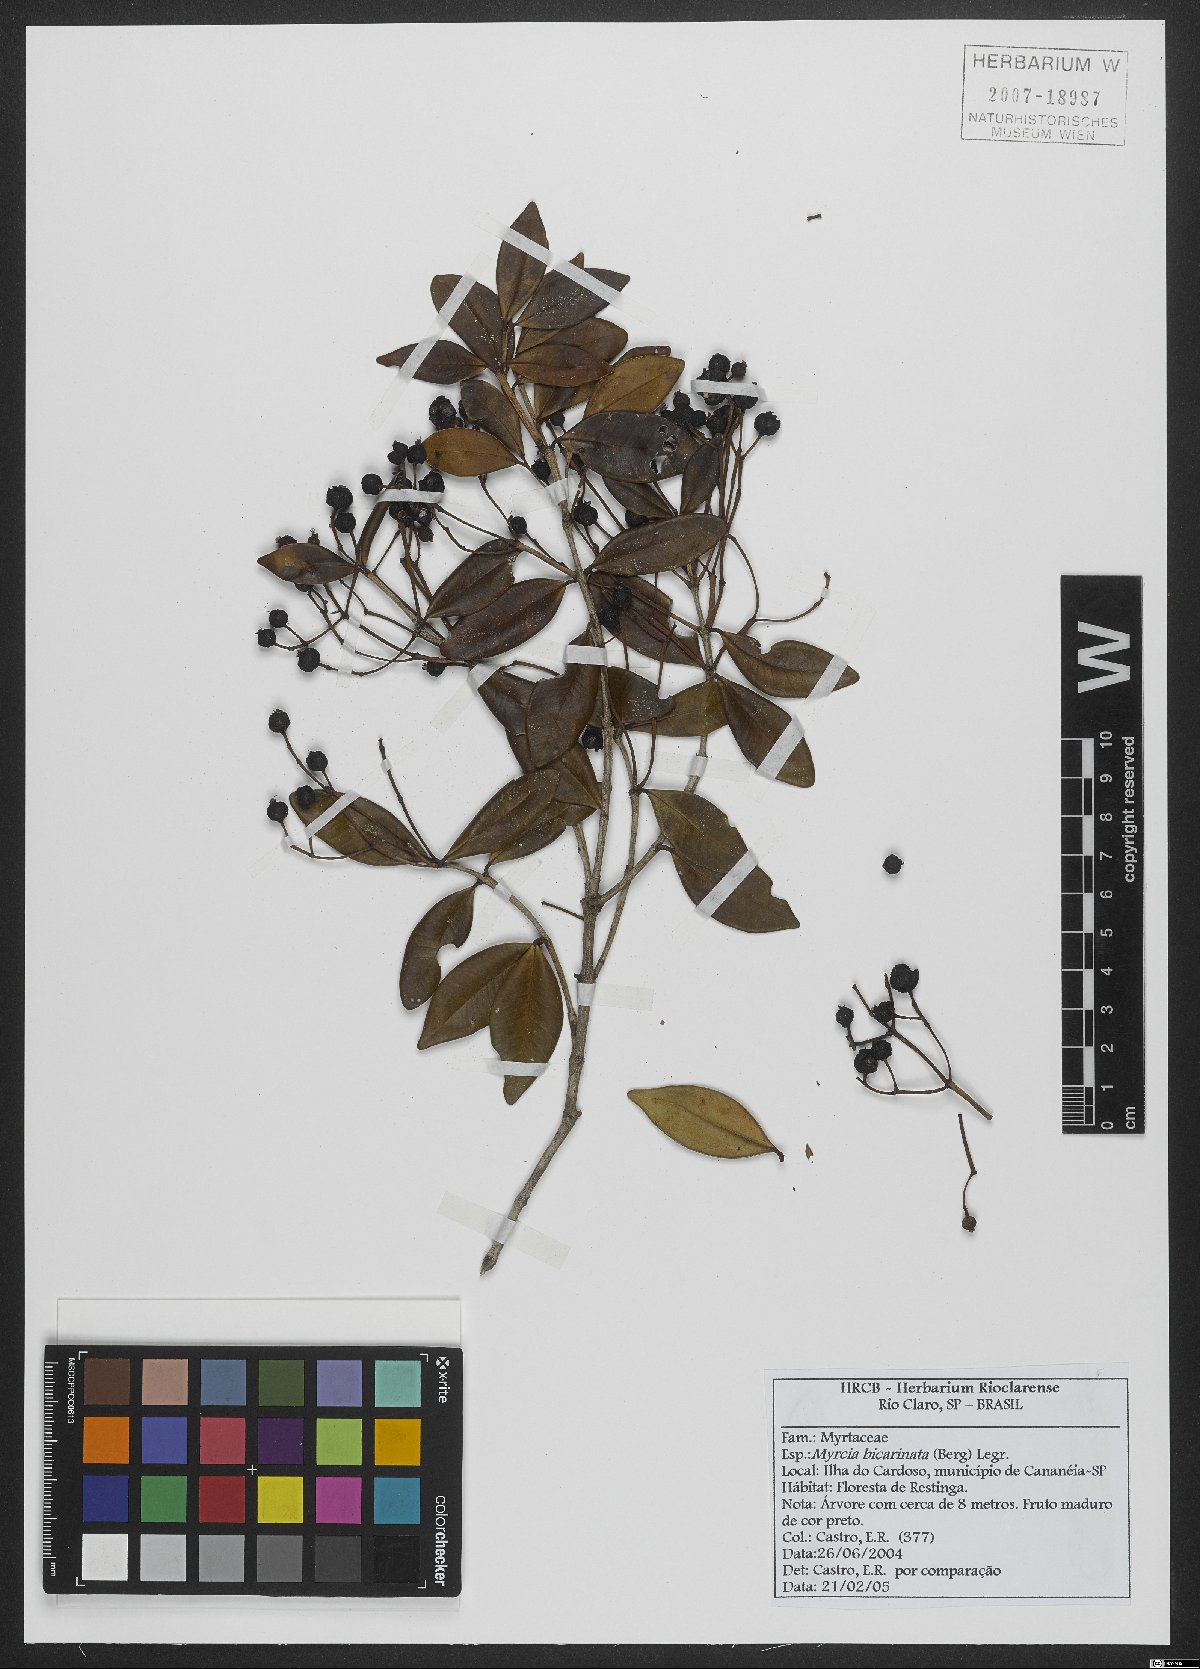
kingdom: Plantae
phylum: Tracheophyta
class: Magnoliopsida
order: Myrtales
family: Myrtaceae
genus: Myrcia
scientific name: Myrcia bicarinata
